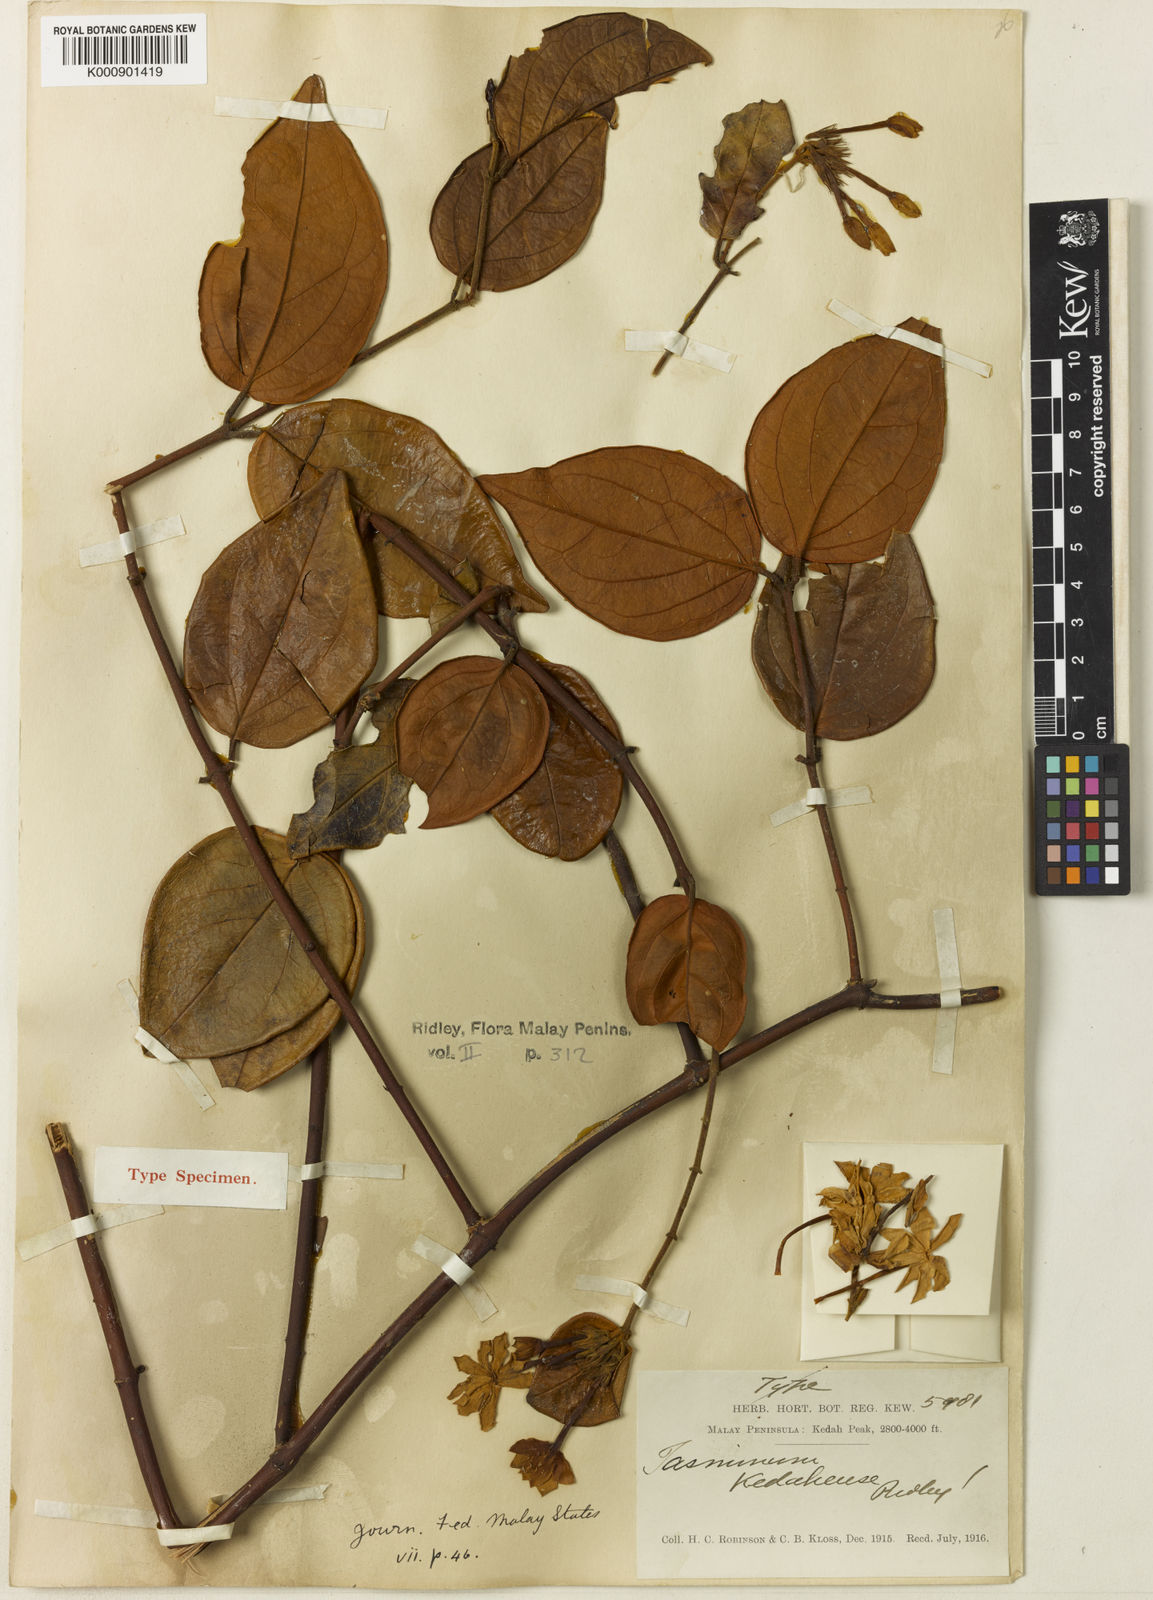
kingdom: Plantae
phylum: Tracheophyta
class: Magnoliopsida
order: Lamiales
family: Oleaceae
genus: Jasminum
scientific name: Jasminum kedahense
